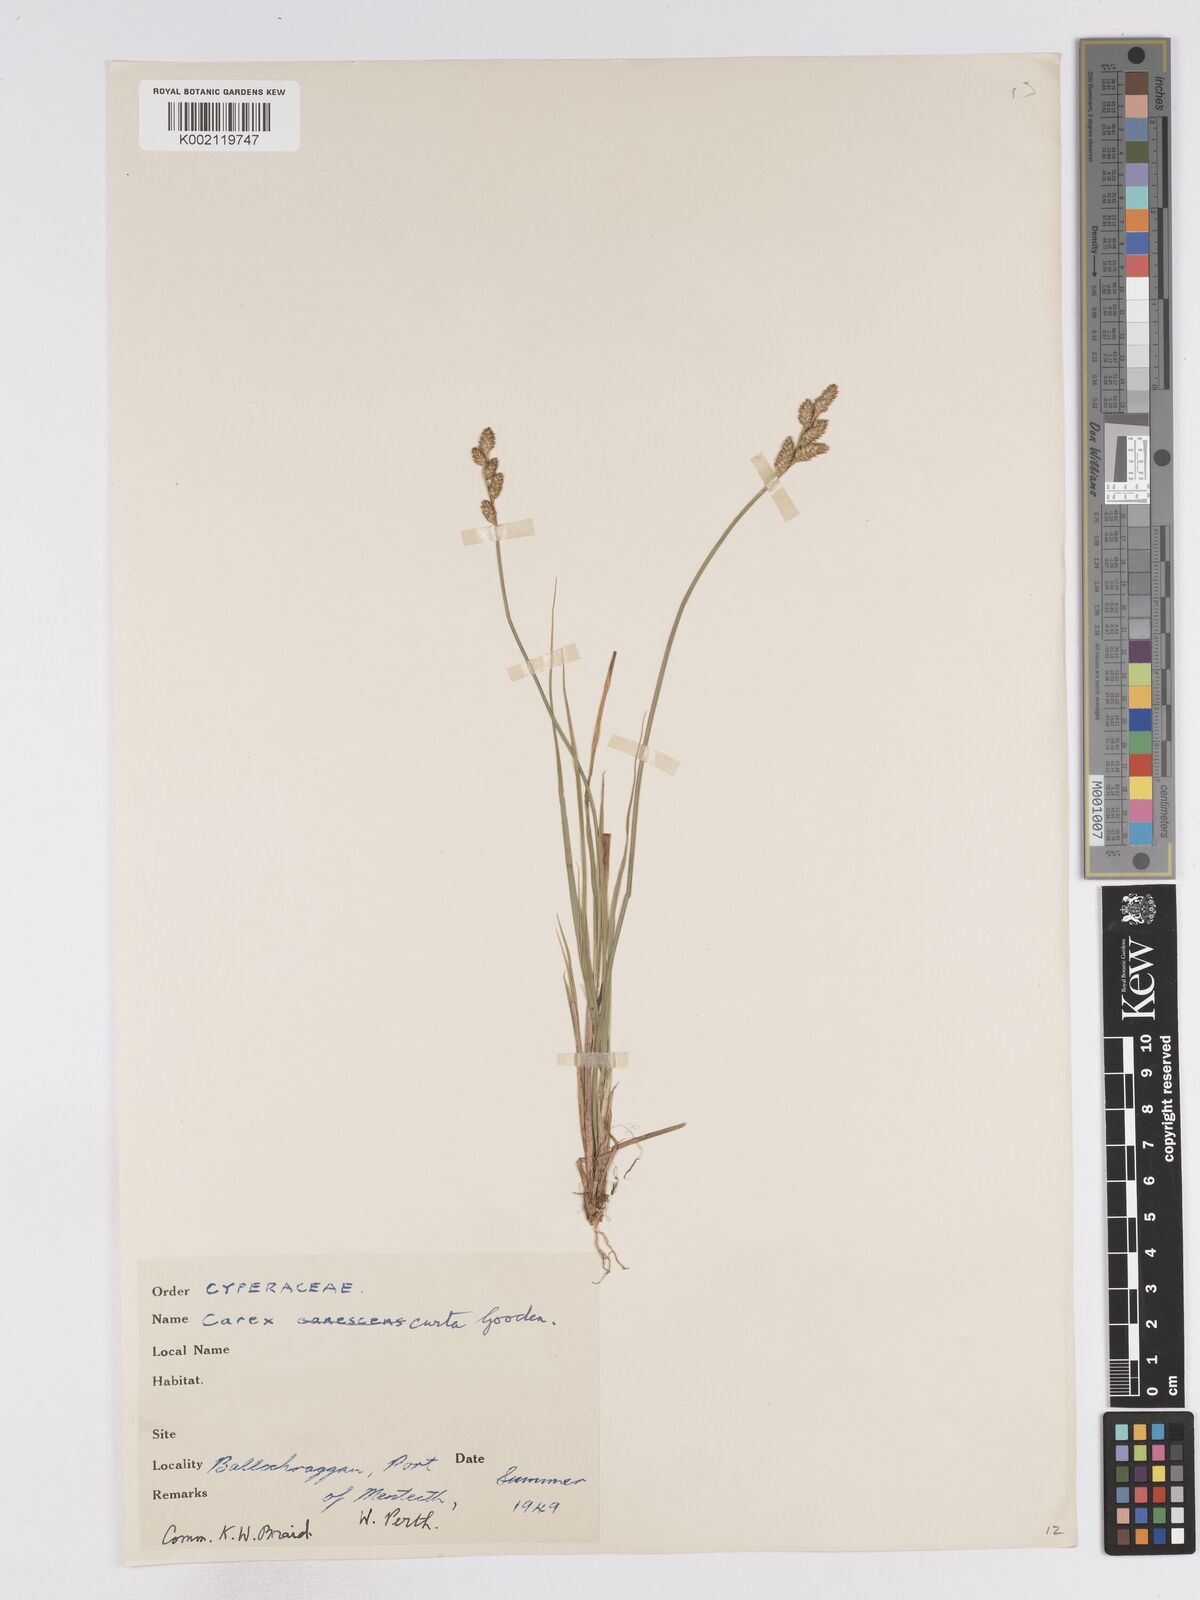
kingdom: Plantae
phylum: Tracheophyta
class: Liliopsida
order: Poales
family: Cyperaceae
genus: Carex
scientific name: Carex curta
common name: White sedge
